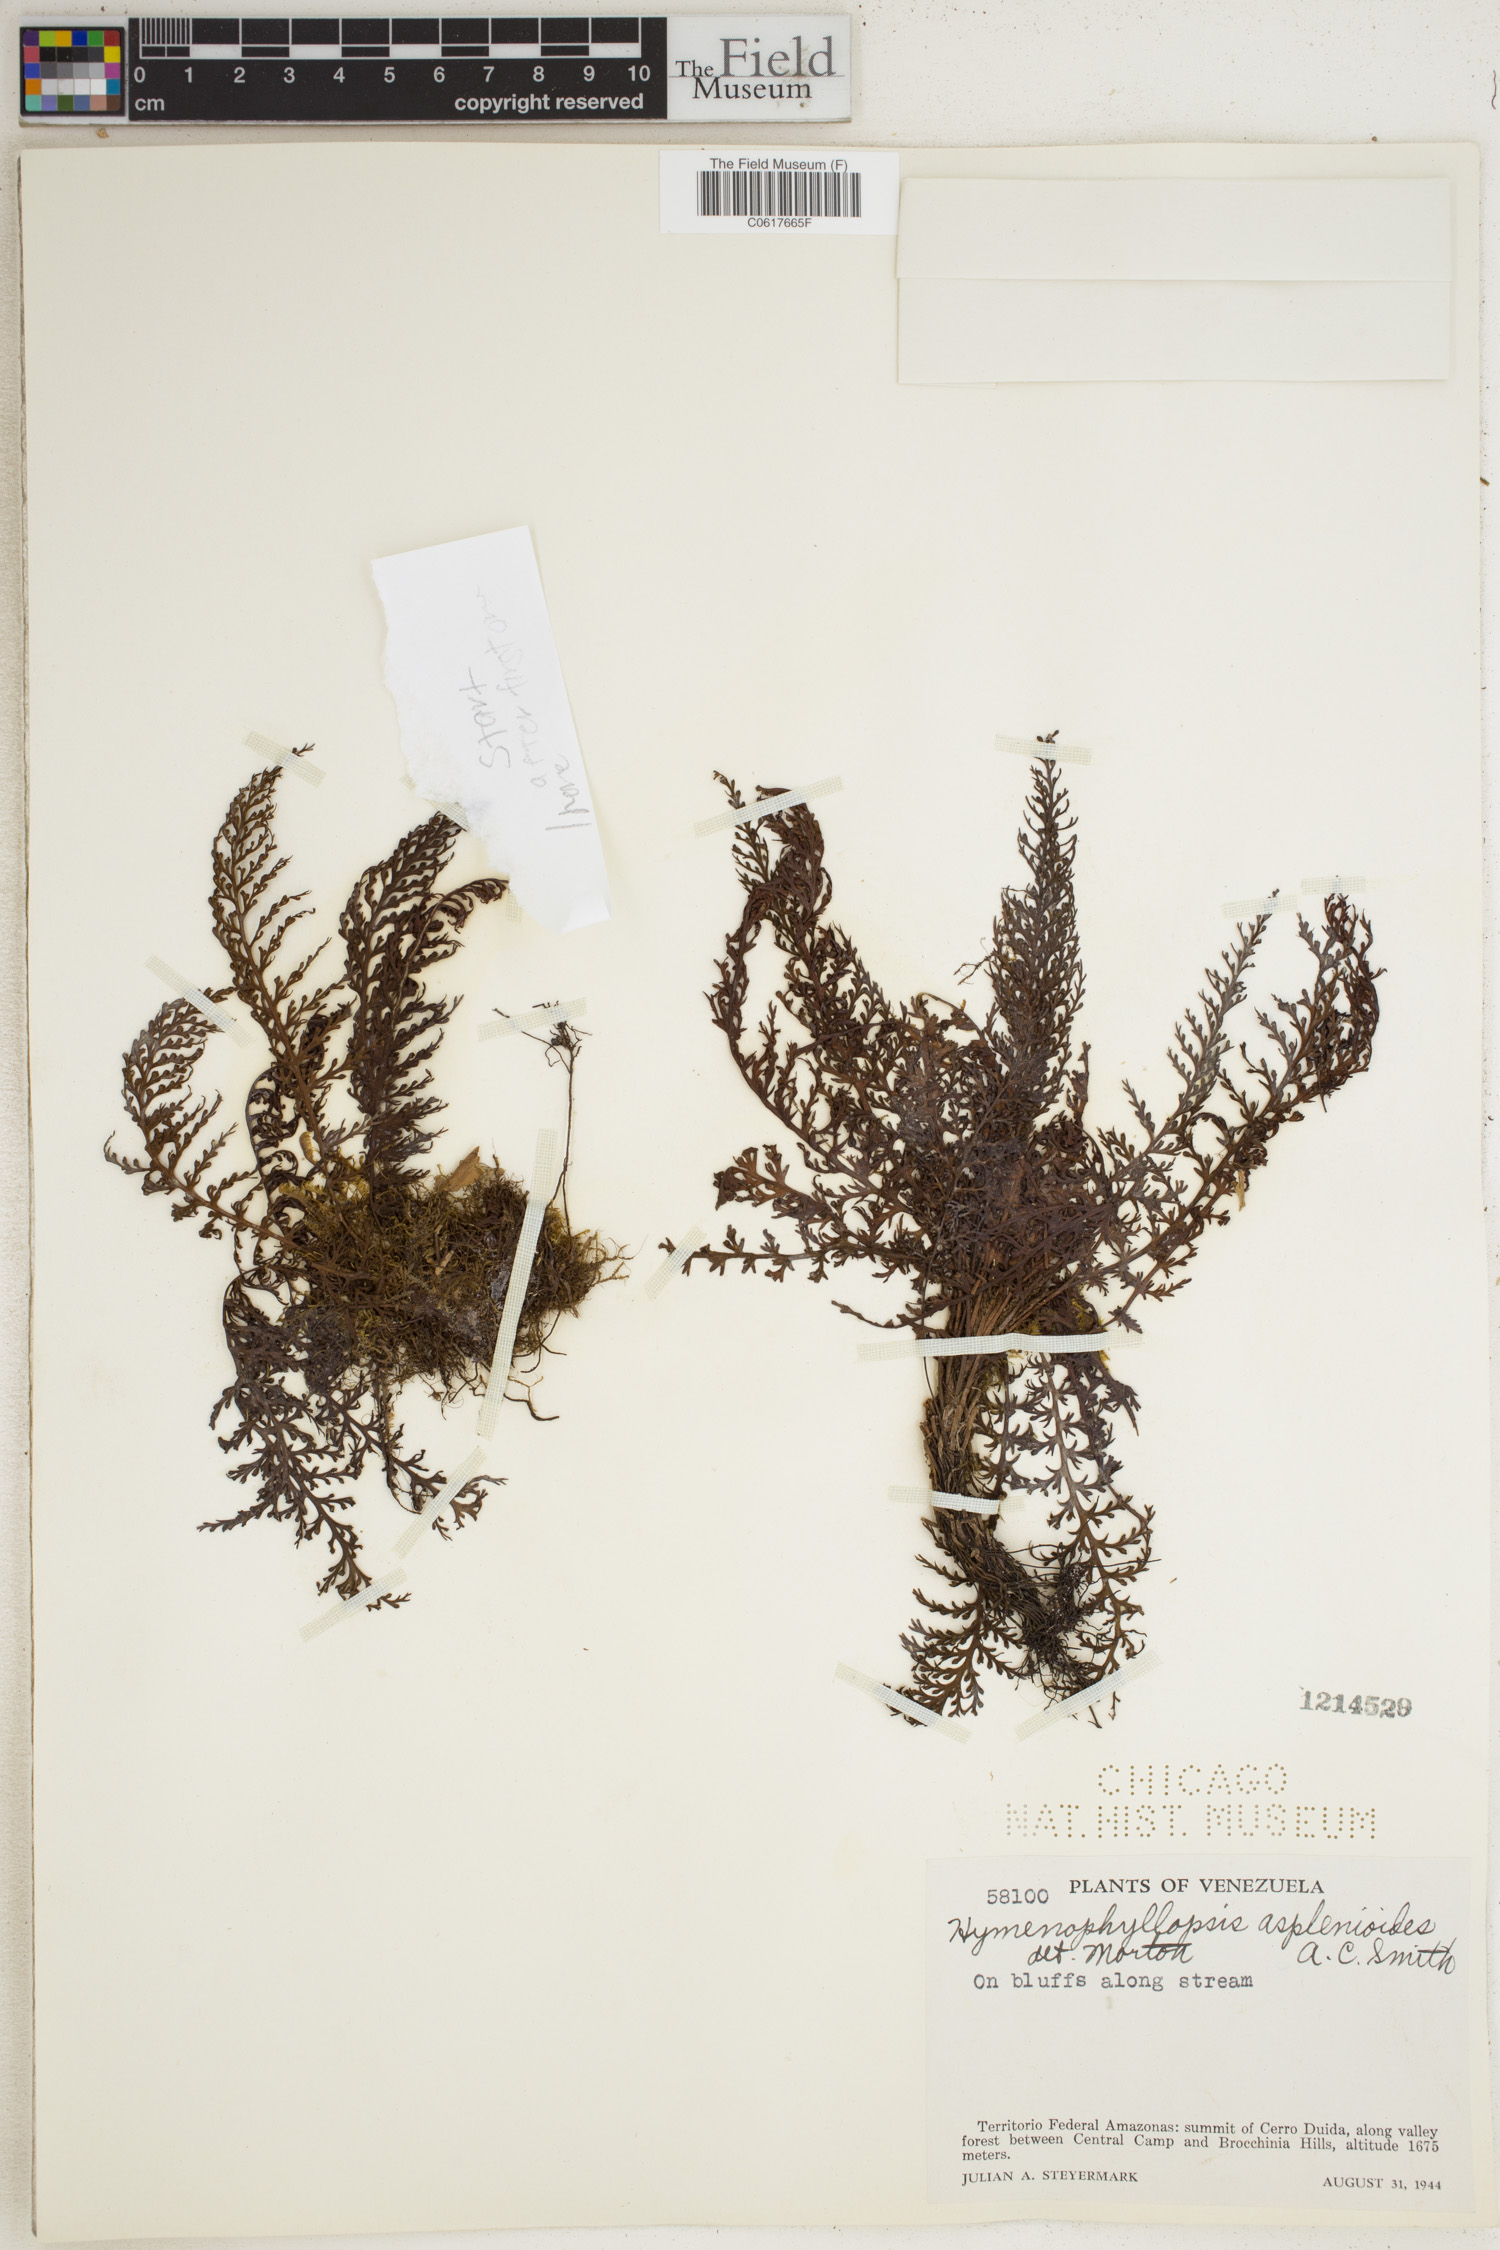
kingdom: Plantae
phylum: Tracheophyta
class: Polypodiopsida
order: Cyatheales
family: Cyatheaceae
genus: Cyathea
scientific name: Cyathea asplenioides
